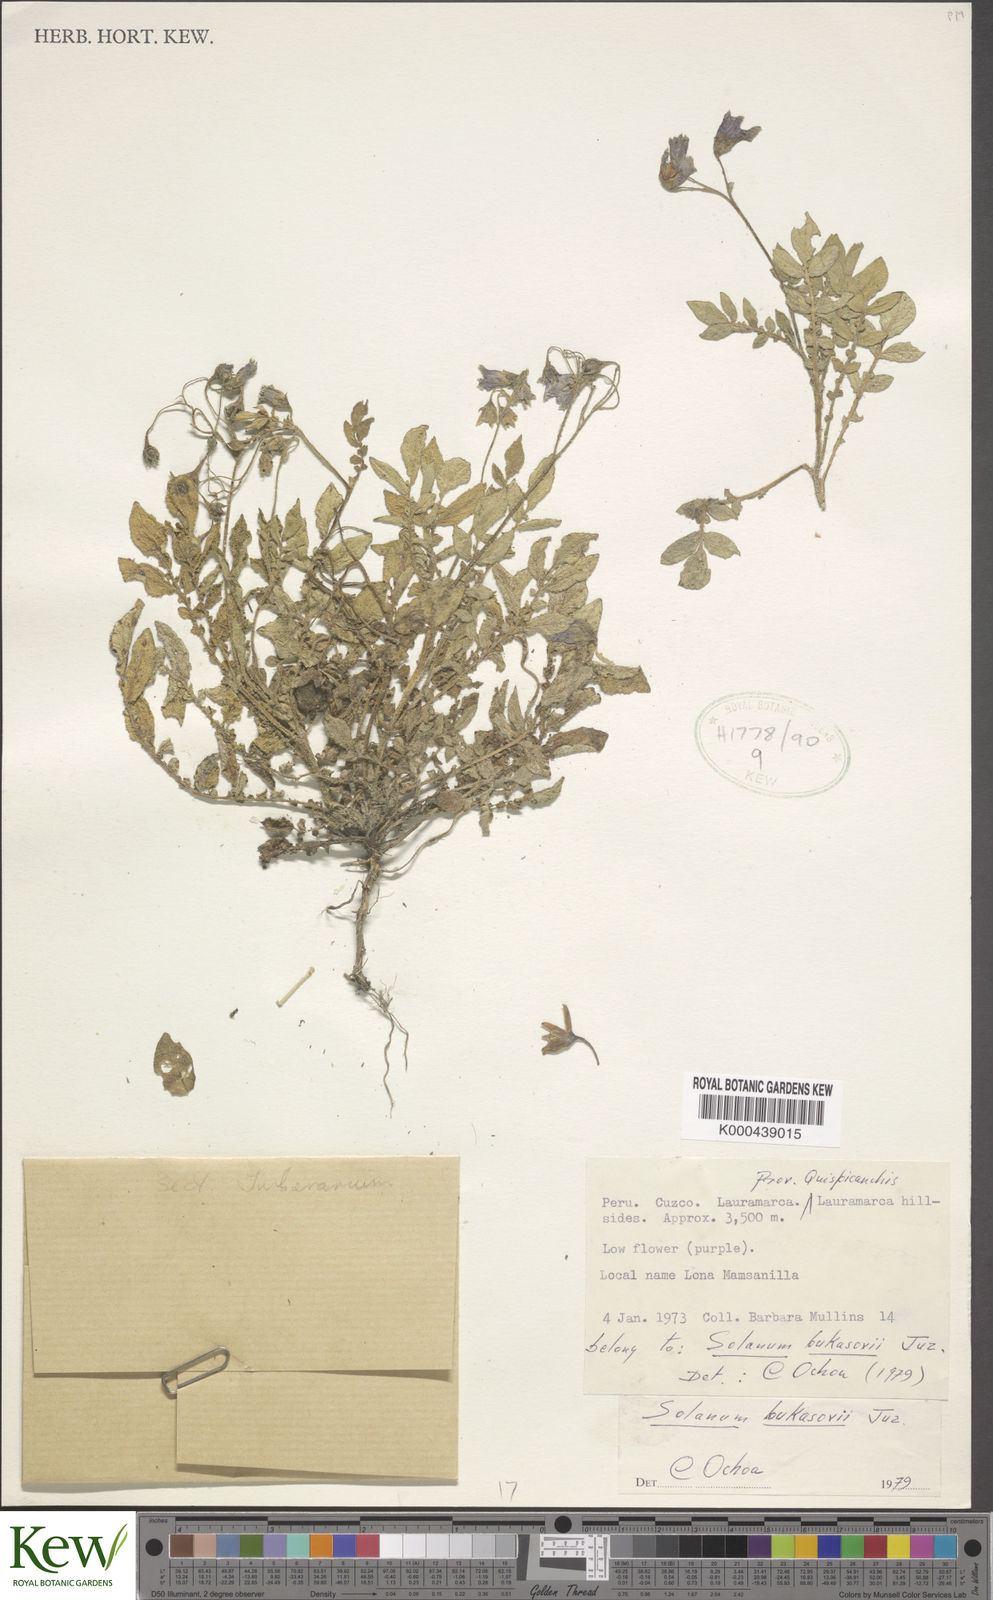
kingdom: Plantae
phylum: Tracheophyta
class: Magnoliopsida
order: Solanales
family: Solanaceae
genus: Solanum
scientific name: Solanum candolleanum
